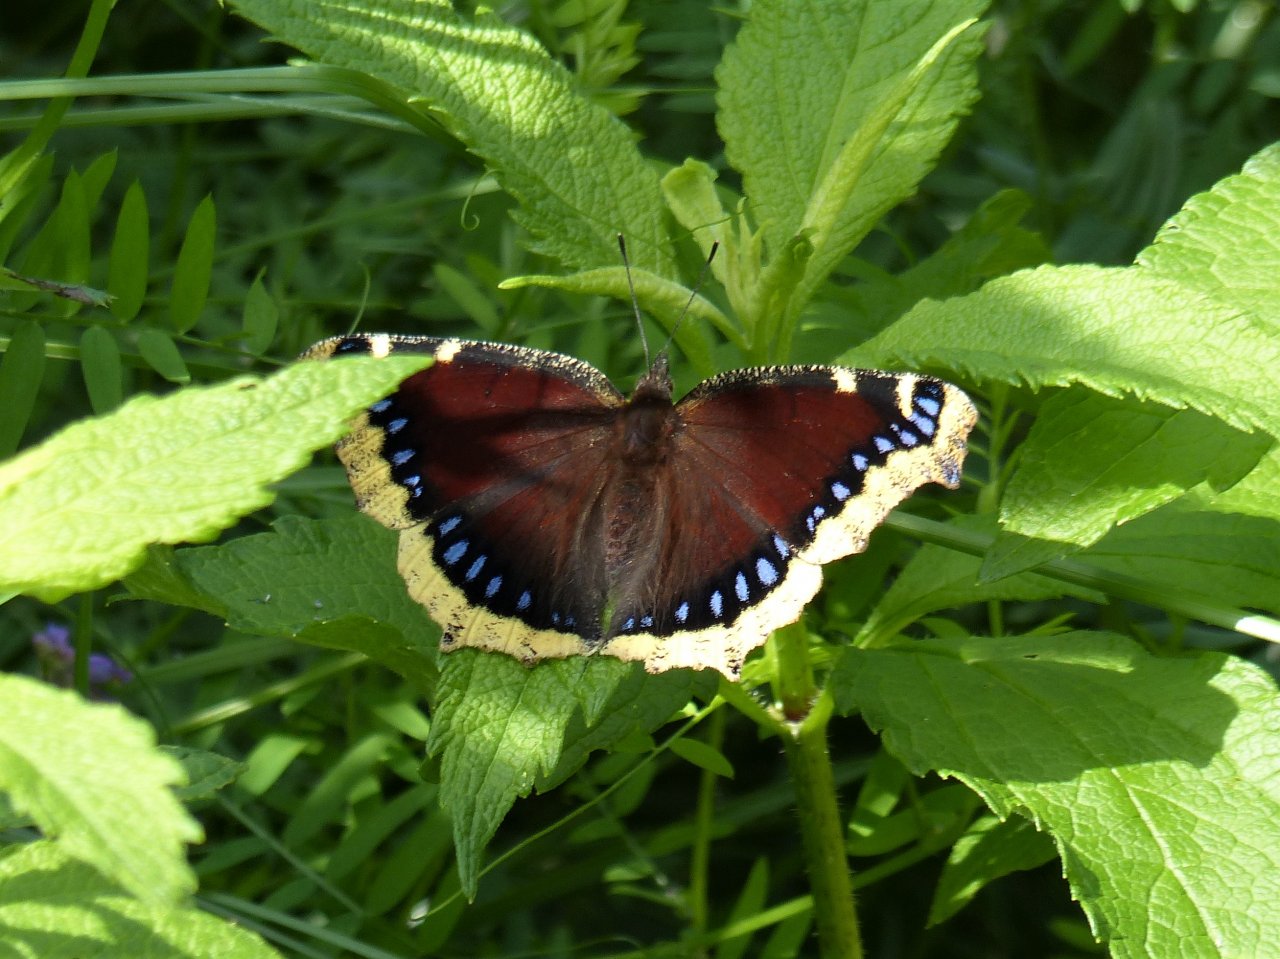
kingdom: Animalia
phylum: Arthropoda
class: Insecta
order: Lepidoptera
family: Nymphalidae
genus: Nymphalis
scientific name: Nymphalis antiopa
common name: Mourning Cloak
